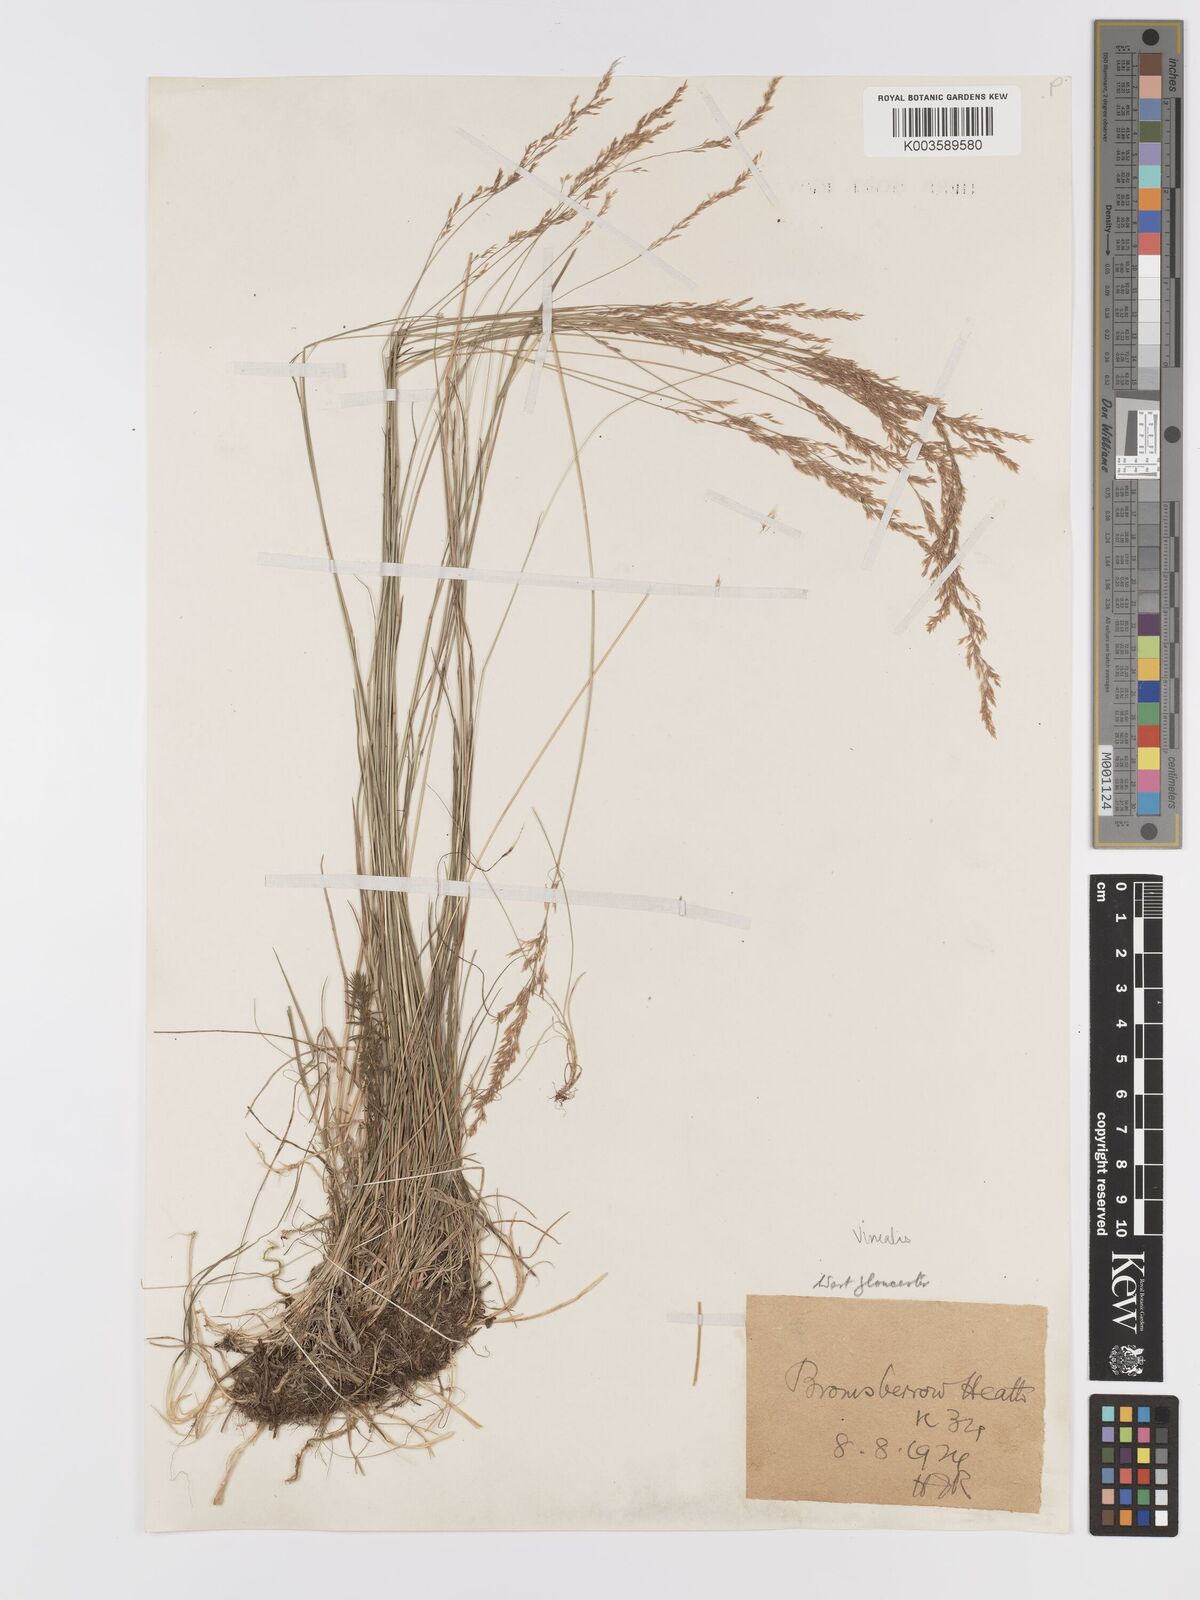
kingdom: Plantae
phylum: Tracheophyta
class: Liliopsida
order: Poales
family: Poaceae
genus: Agrostis
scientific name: Agrostis
